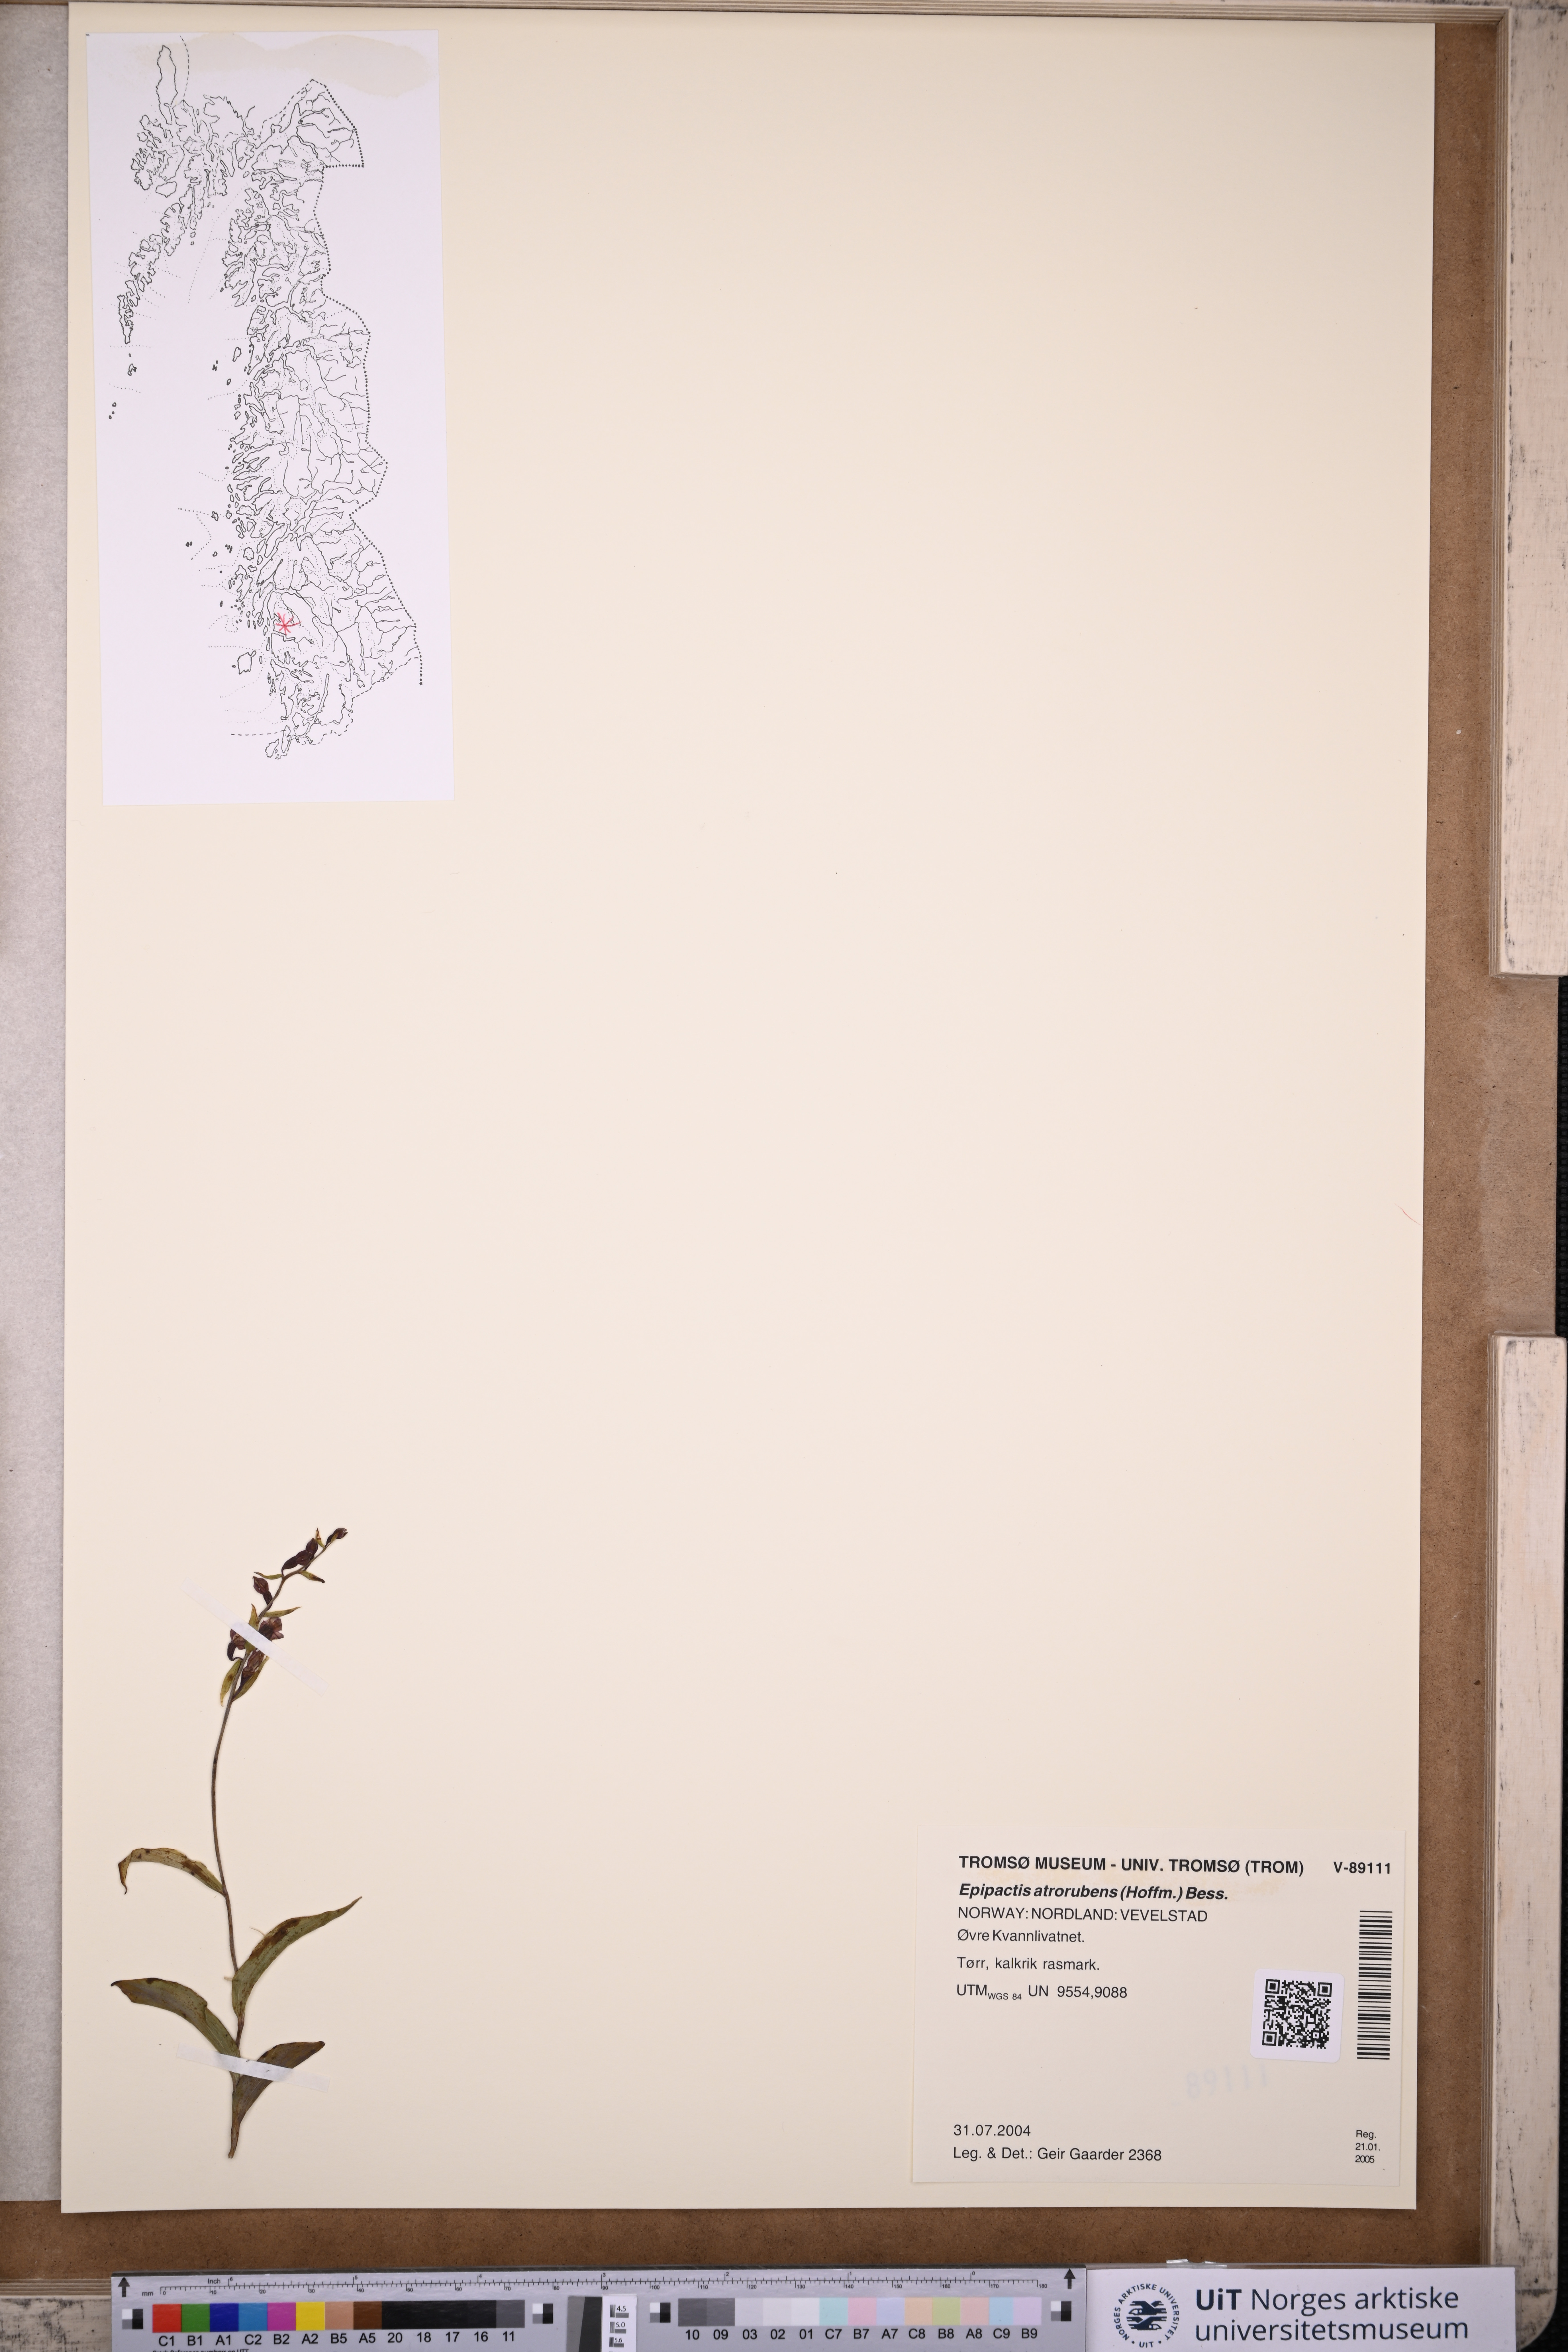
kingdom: Plantae
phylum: Tracheophyta
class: Liliopsida
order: Asparagales
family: Orchidaceae
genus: Epipactis
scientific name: Epipactis atrorubens
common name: Dark-red helleborine
